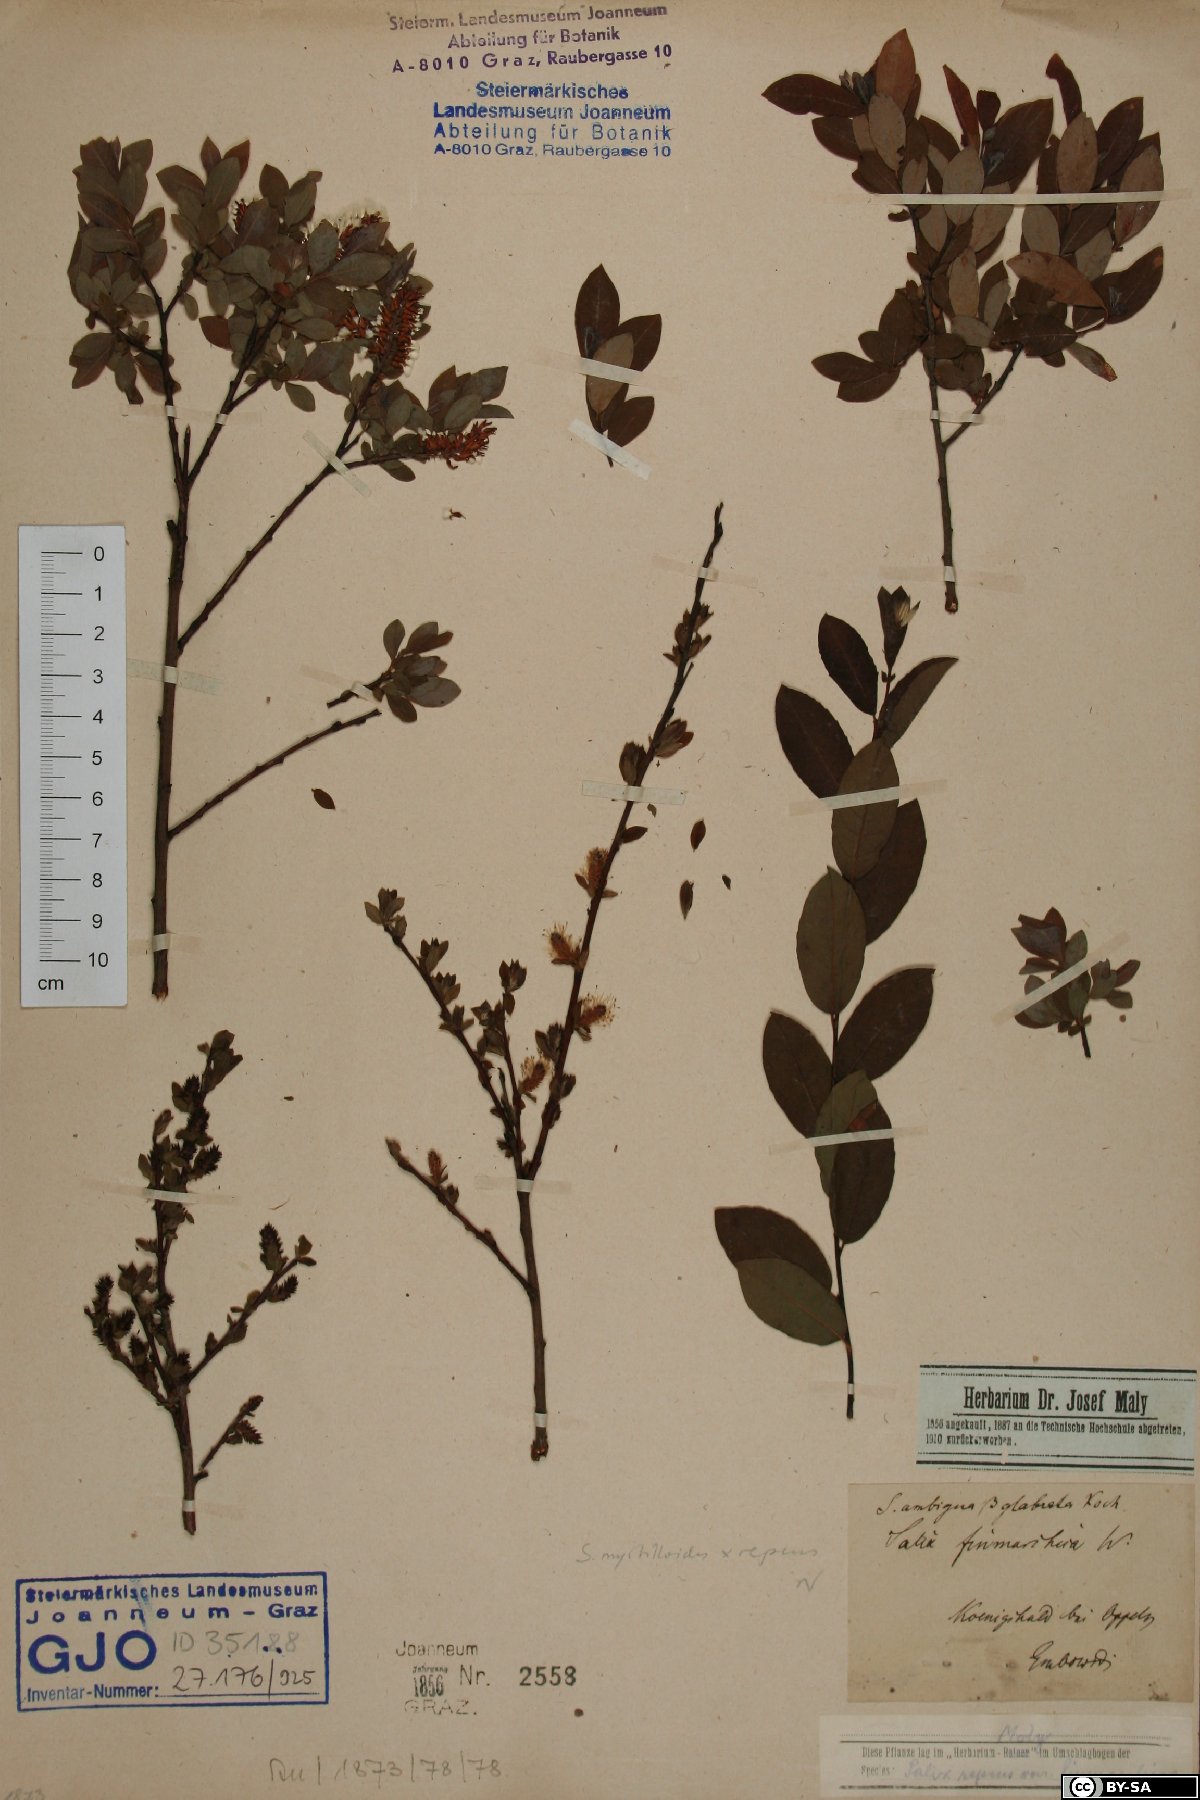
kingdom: Plantae
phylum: Tracheophyta
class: Magnoliopsida
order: Malpighiales
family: Salicaceae
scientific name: Salicaceae
